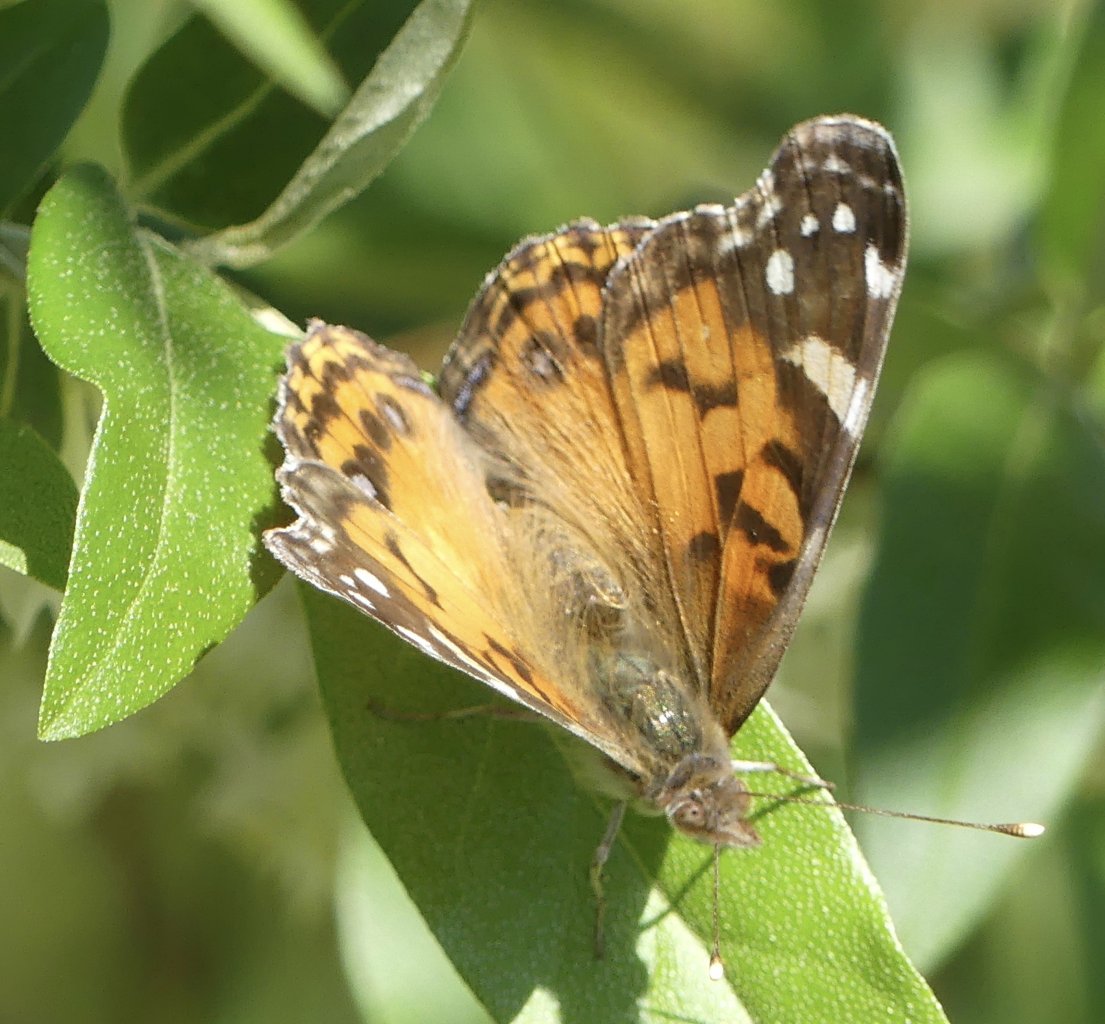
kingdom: Animalia
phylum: Arthropoda
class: Insecta
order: Lepidoptera
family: Nymphalidae
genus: Vanessa
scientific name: Vanessa virginiensis
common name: American Lady
